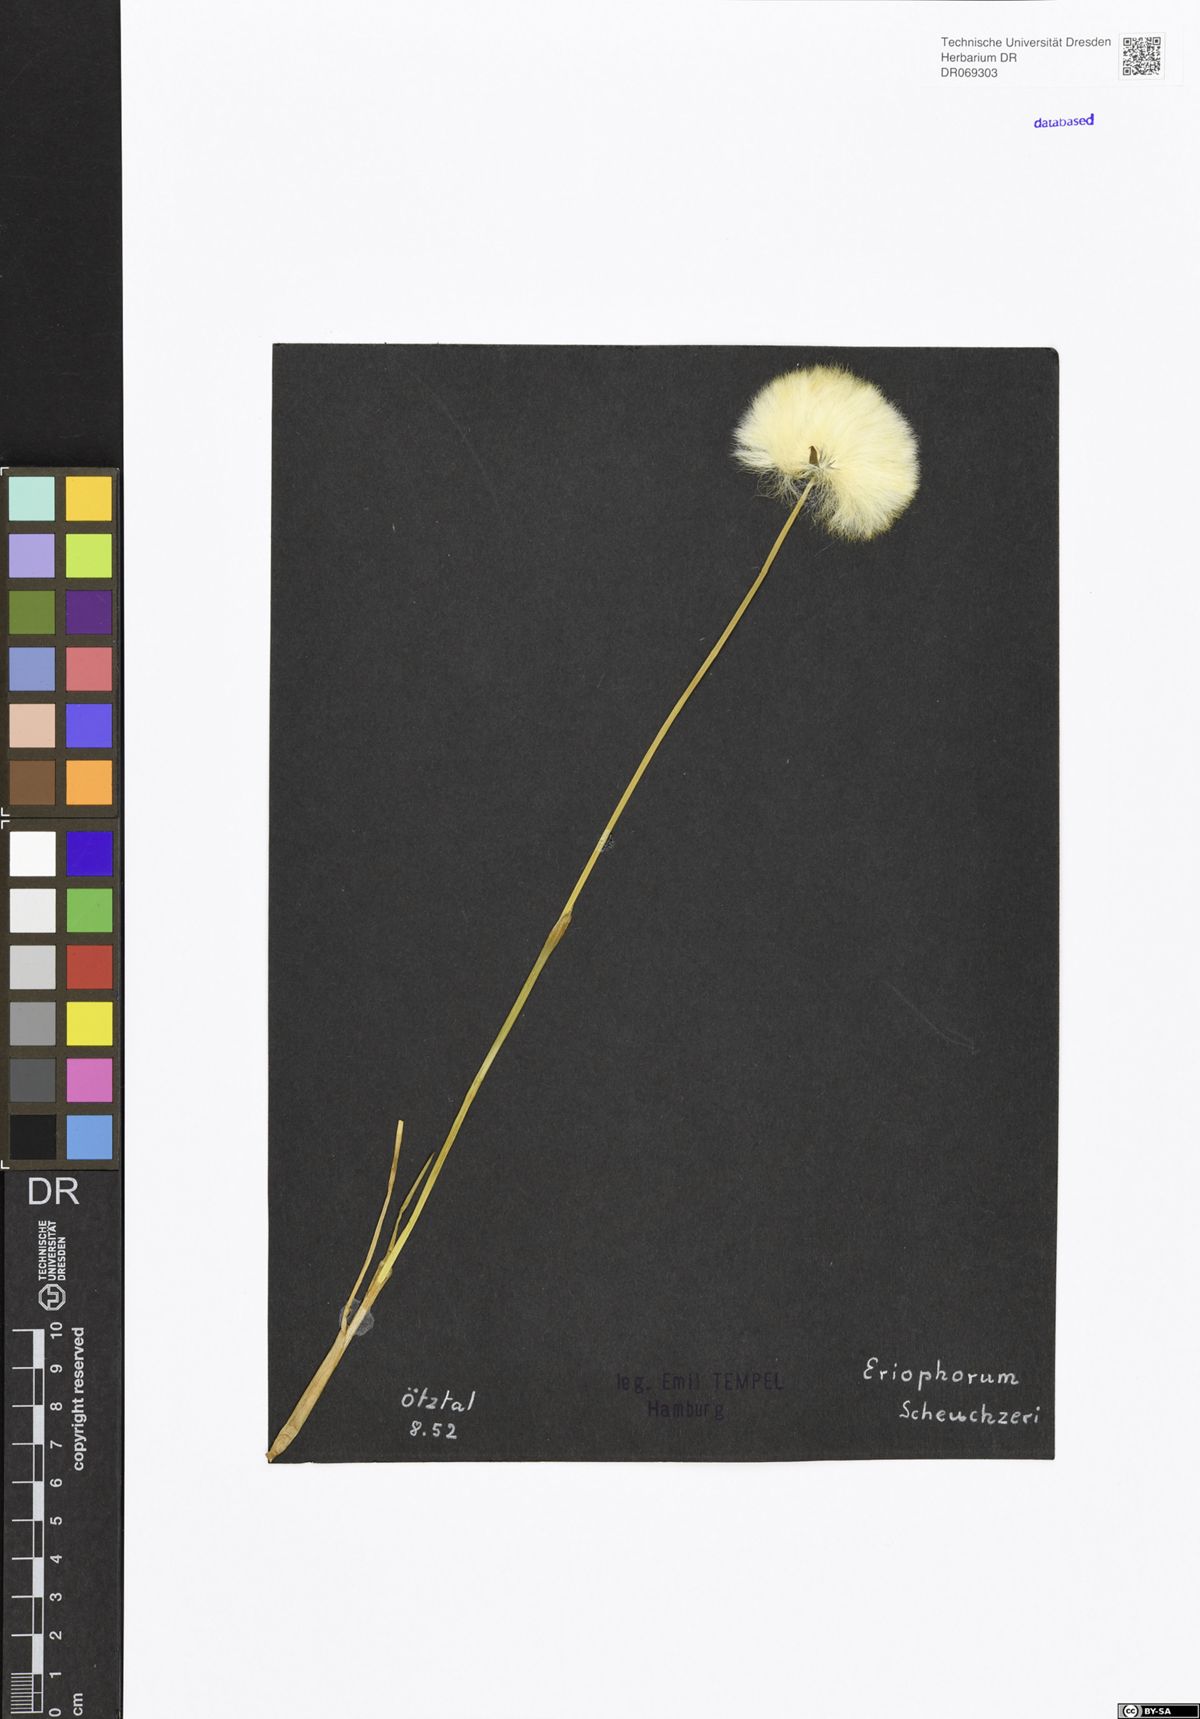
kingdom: Plantae
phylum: Tracheophyta
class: Liliopsida
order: Poales
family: Cyperaceae
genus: Eriophorum
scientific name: Eriophorum scheuchzeri
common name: Scheuchzer's cottongrass
